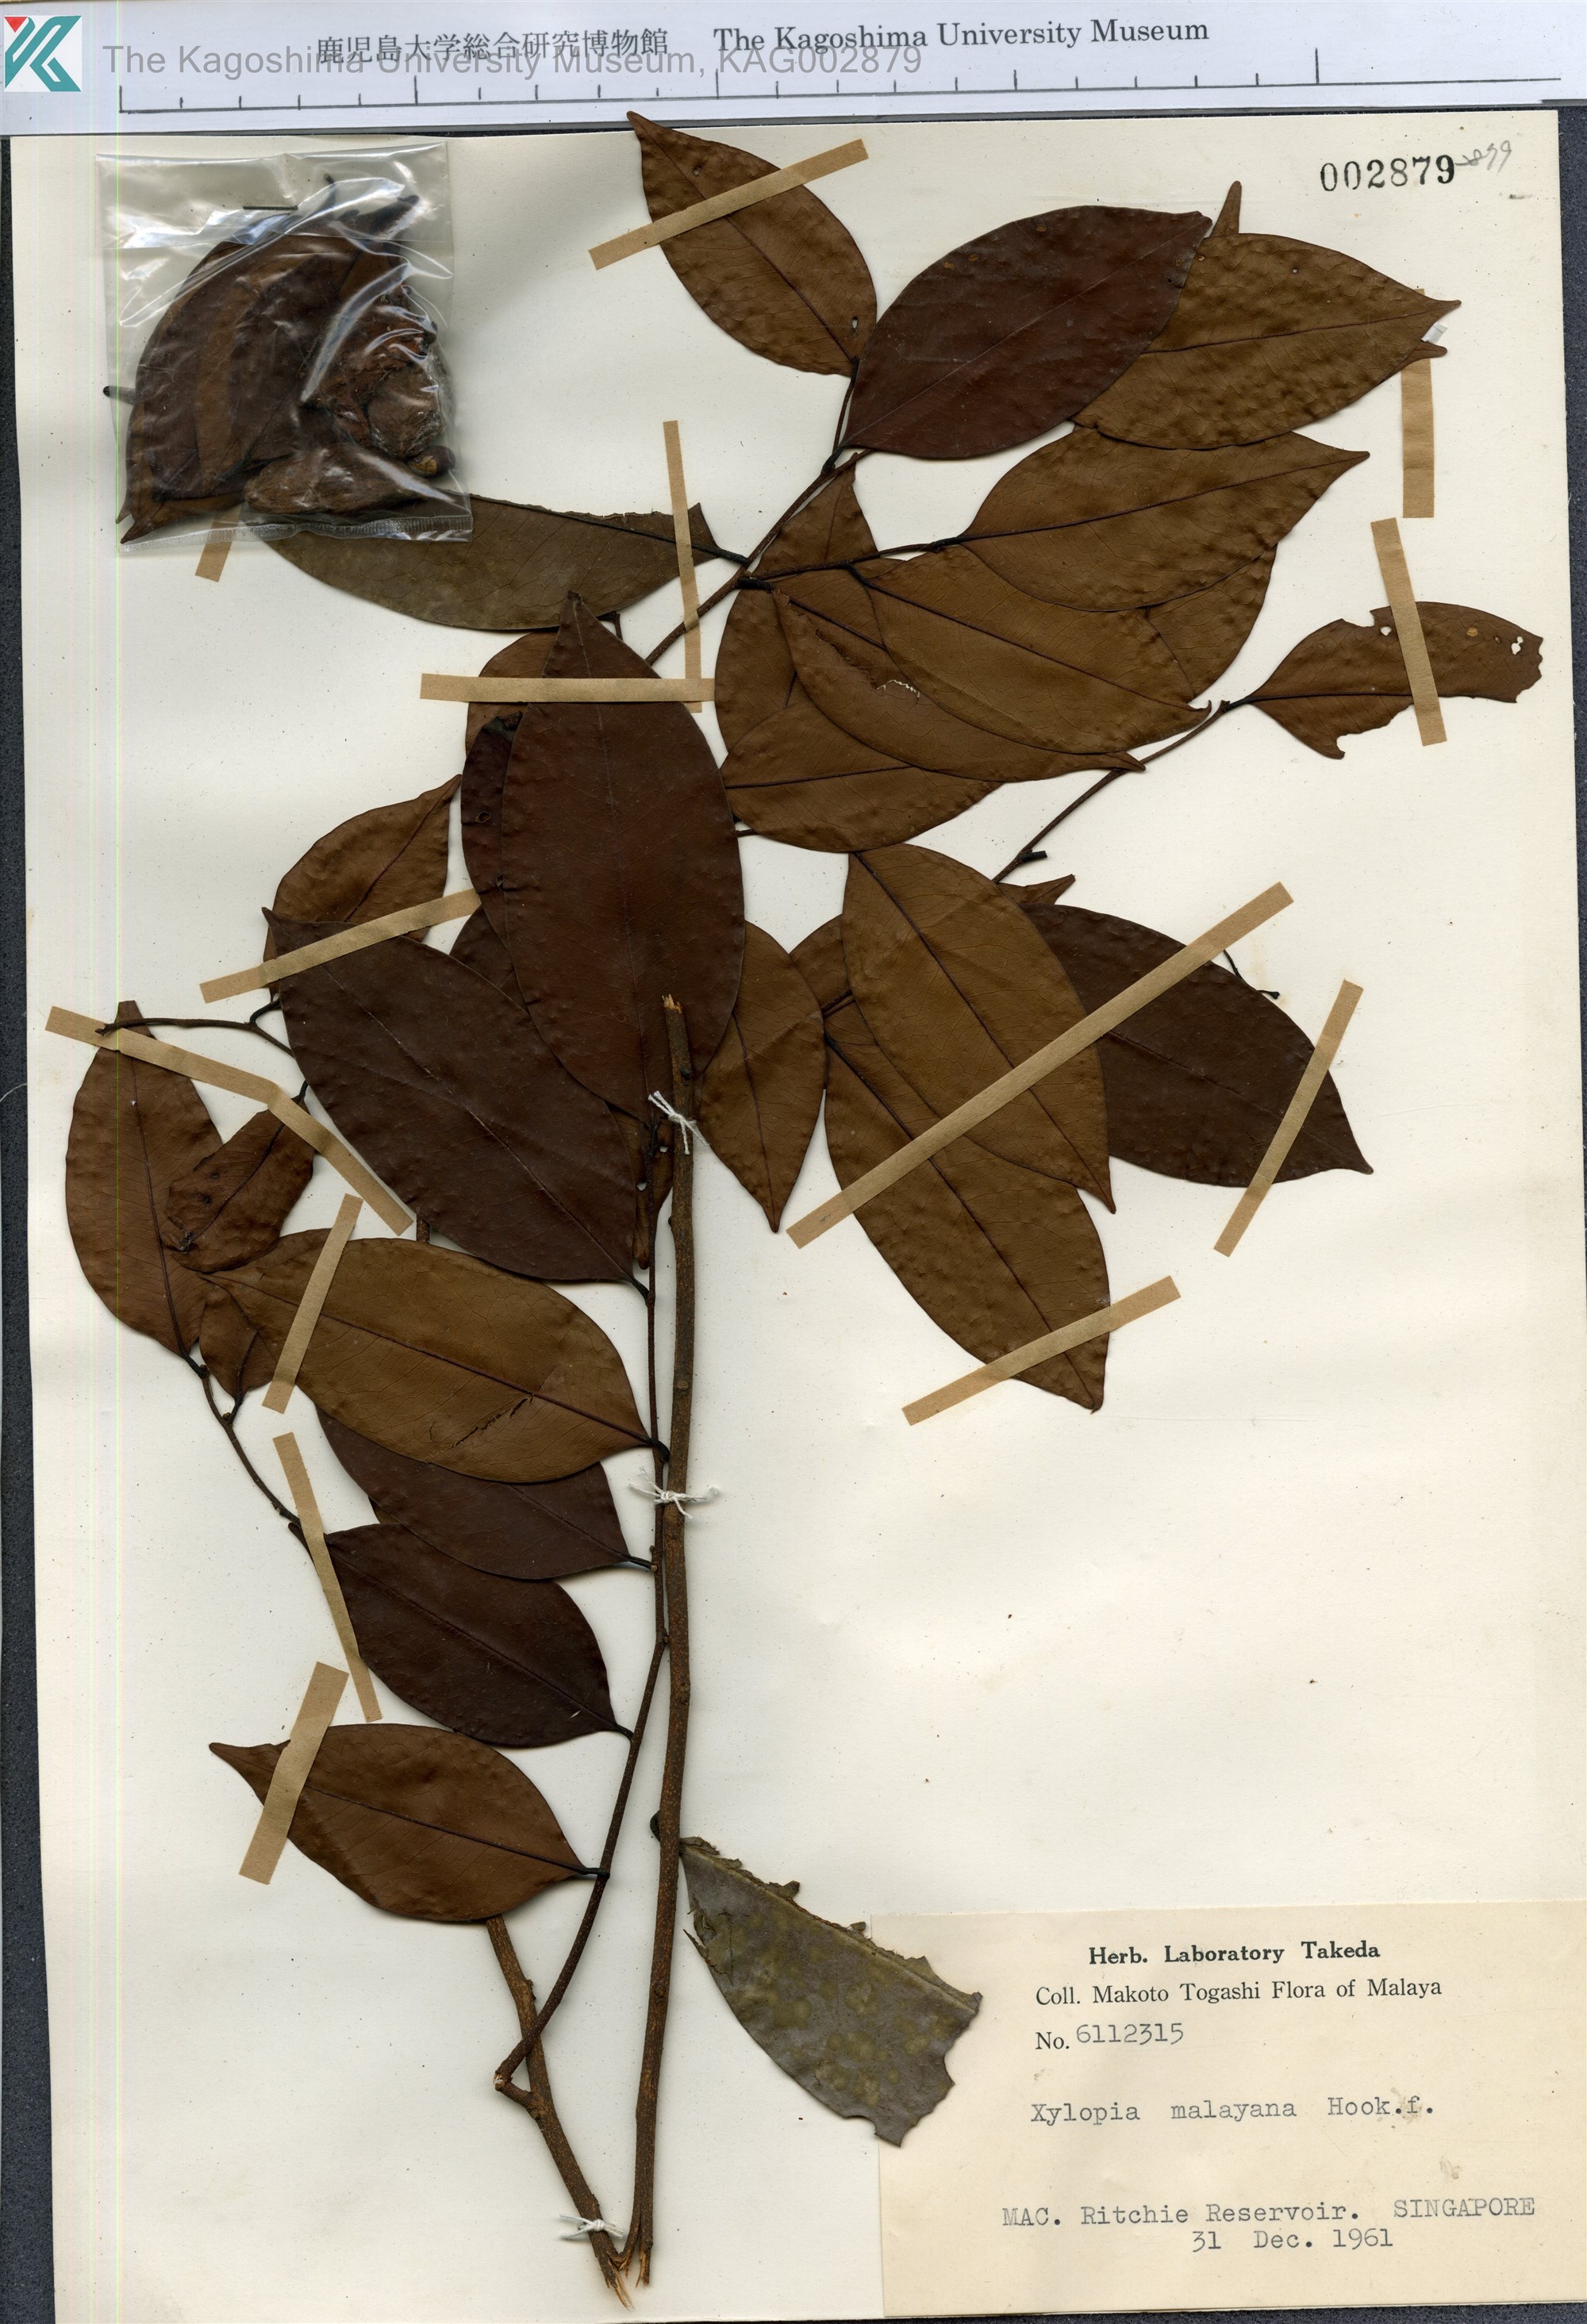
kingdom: Plantae
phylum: Tracheophyta
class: Magnoliopsida
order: Magnoliales
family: Annonaceae
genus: Xylopia
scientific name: Xylopia malayana
